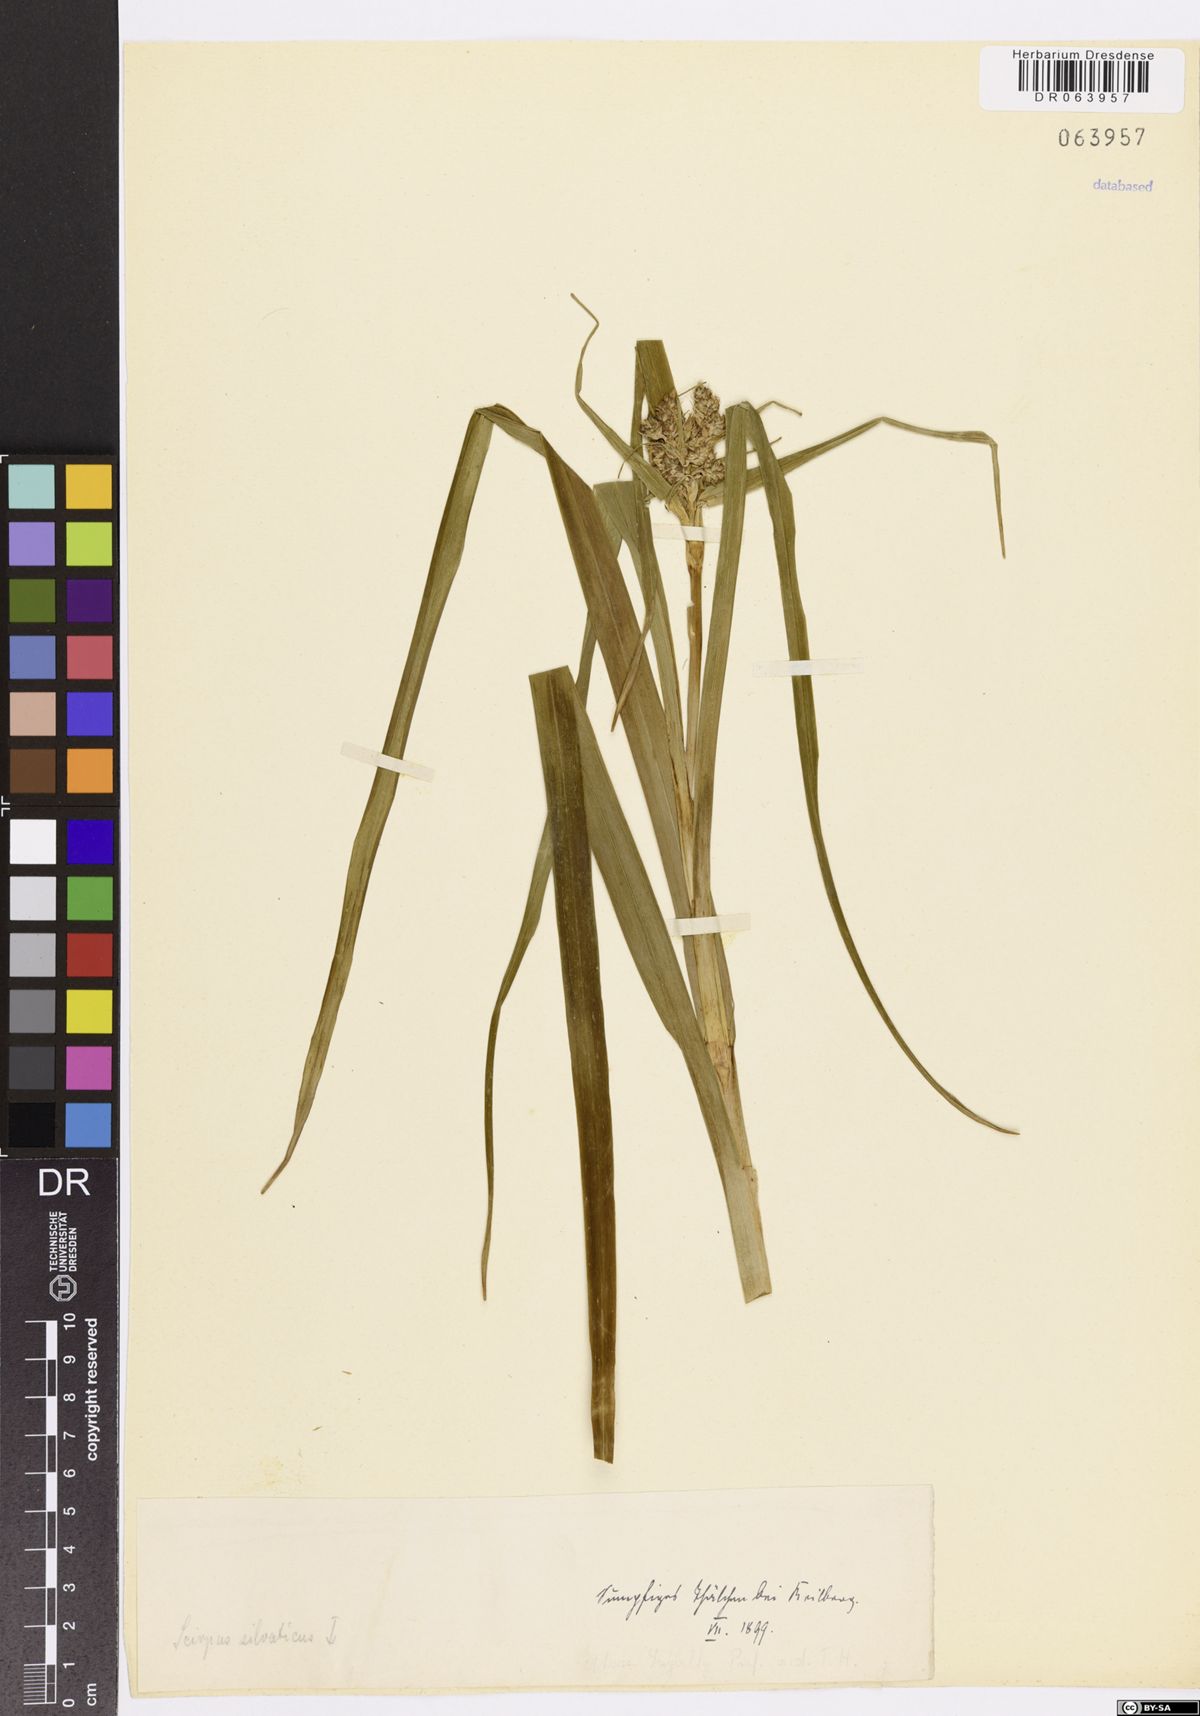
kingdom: Plantae
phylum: Tracheophyta
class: Liliopsida
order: Poales
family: Cyperaceae
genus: Scirpus
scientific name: Scirpus sylvaticus
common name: Wood club-rush
